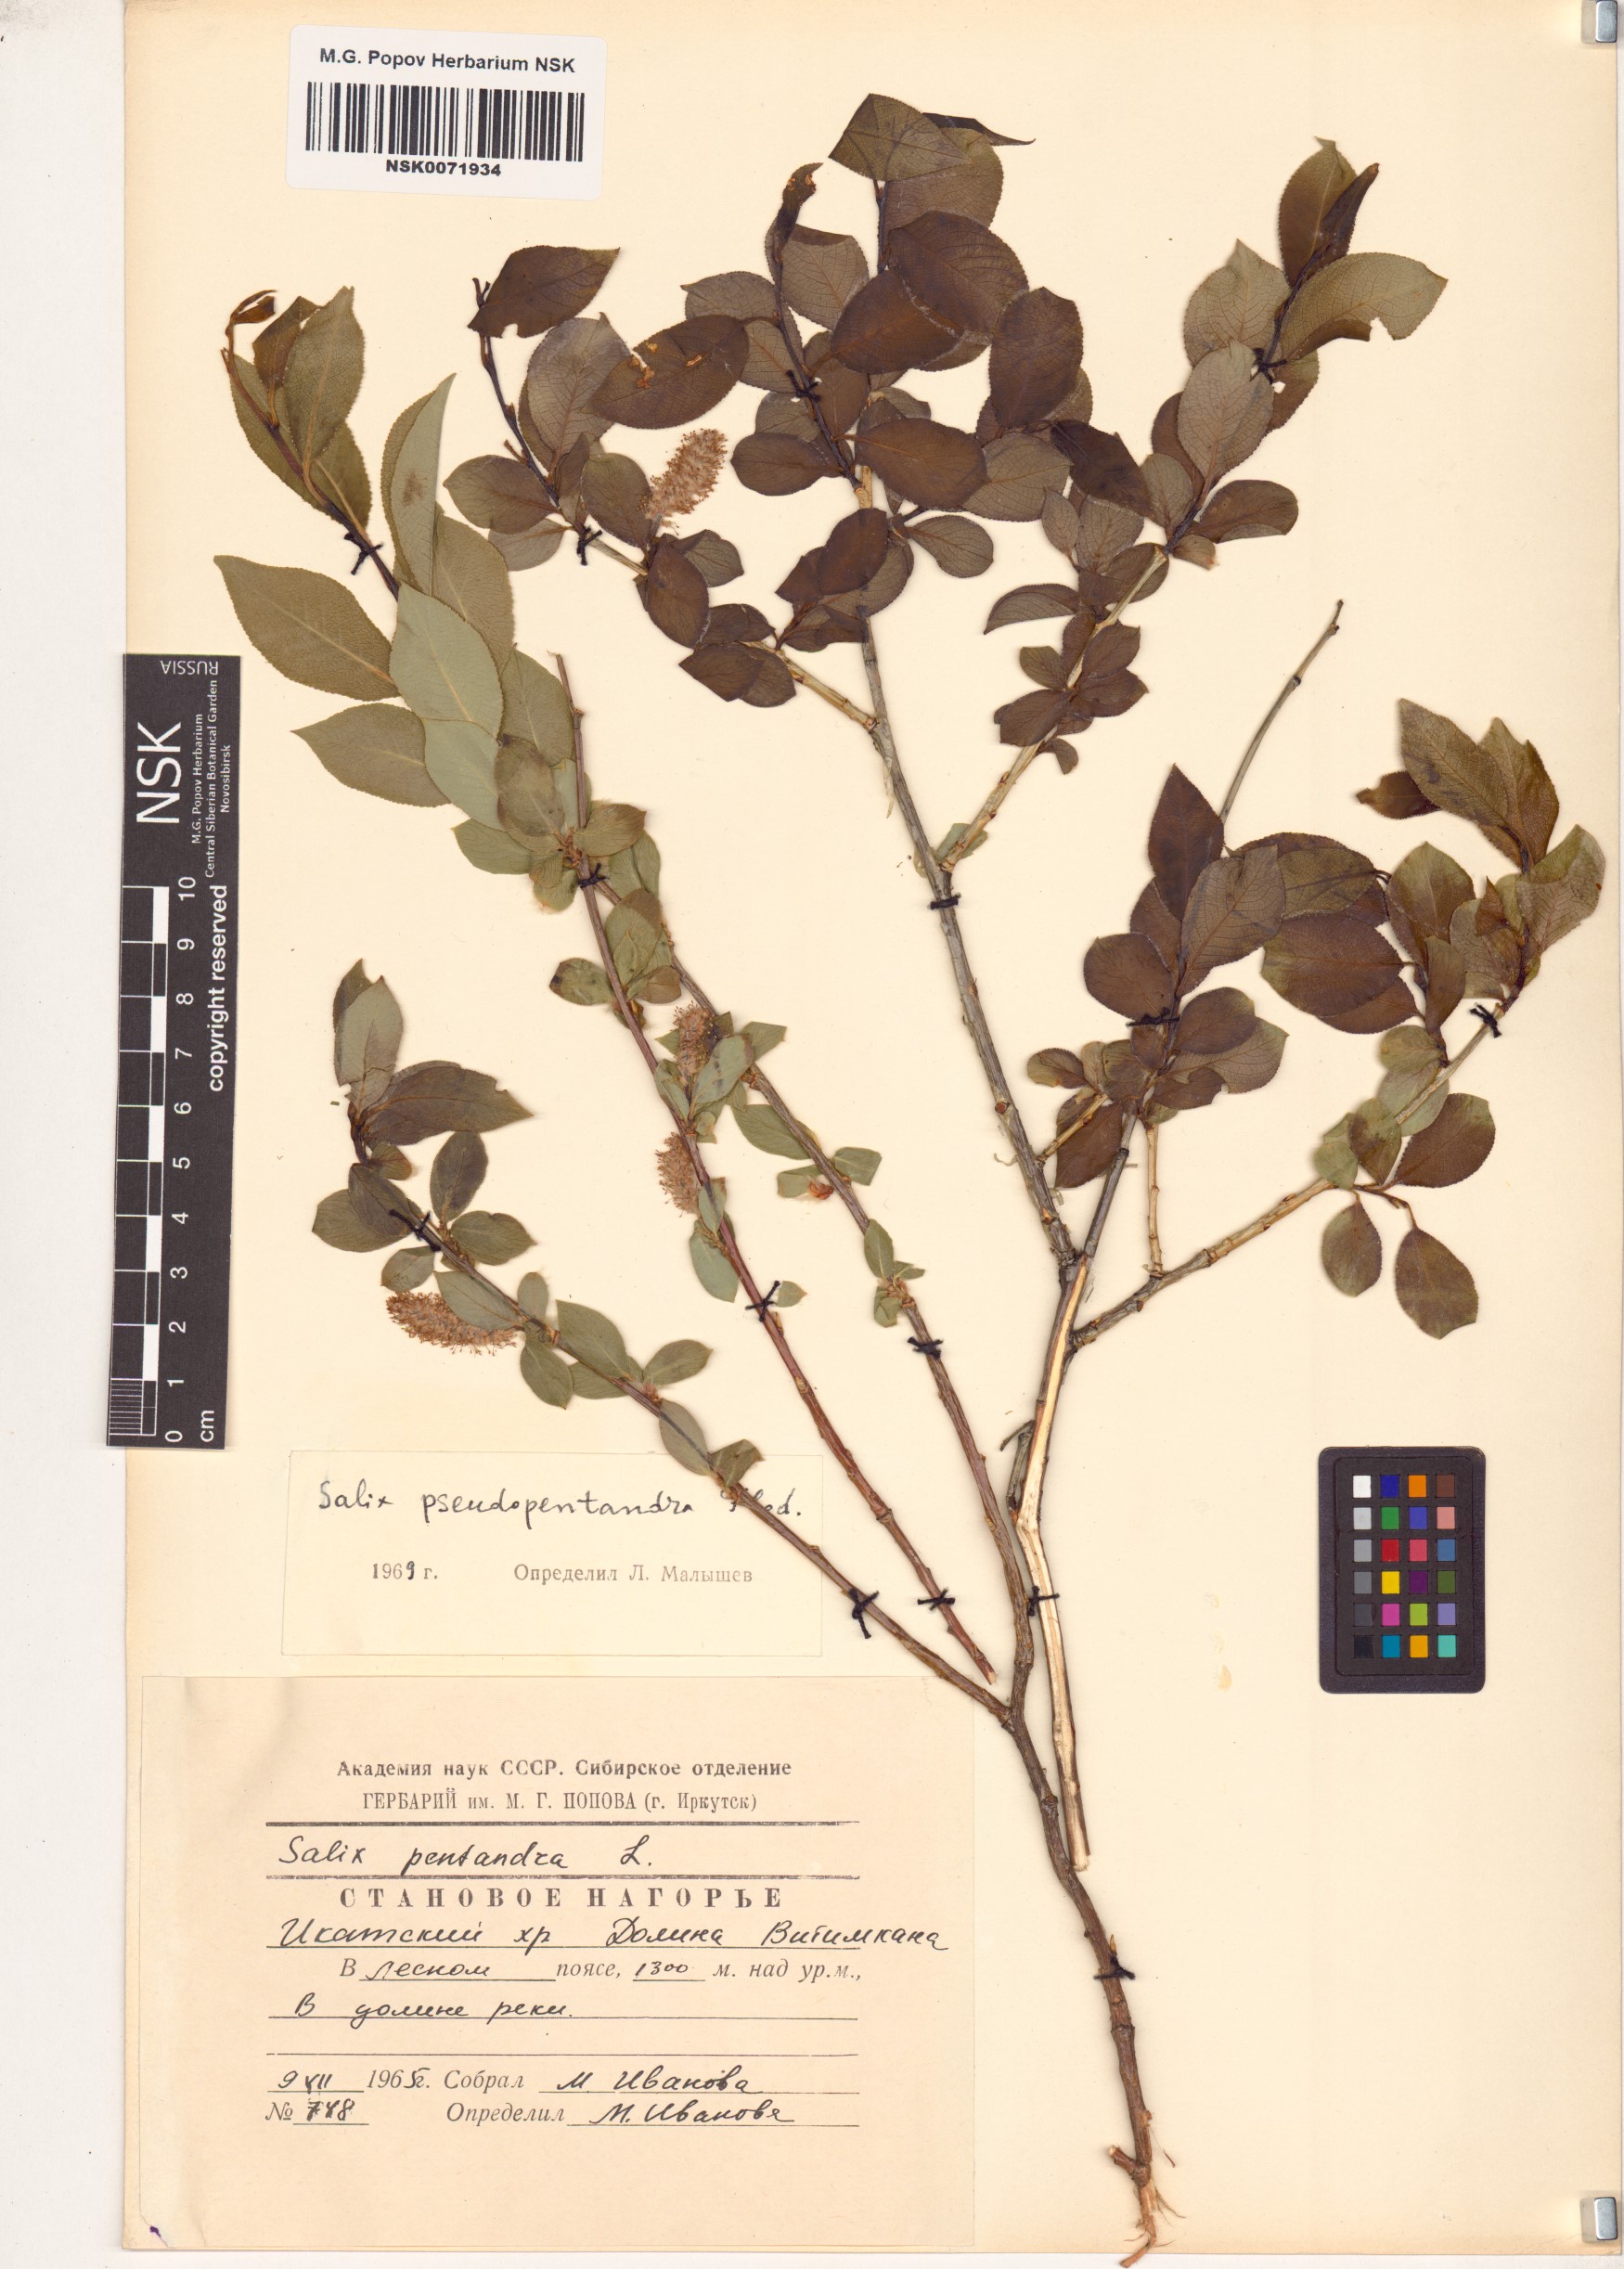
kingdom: Plantae
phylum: Tracheophyta
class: Magnoliopsida
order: Malpighiales
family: Salicaceae
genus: Salix
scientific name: Salix pseudopentandra
